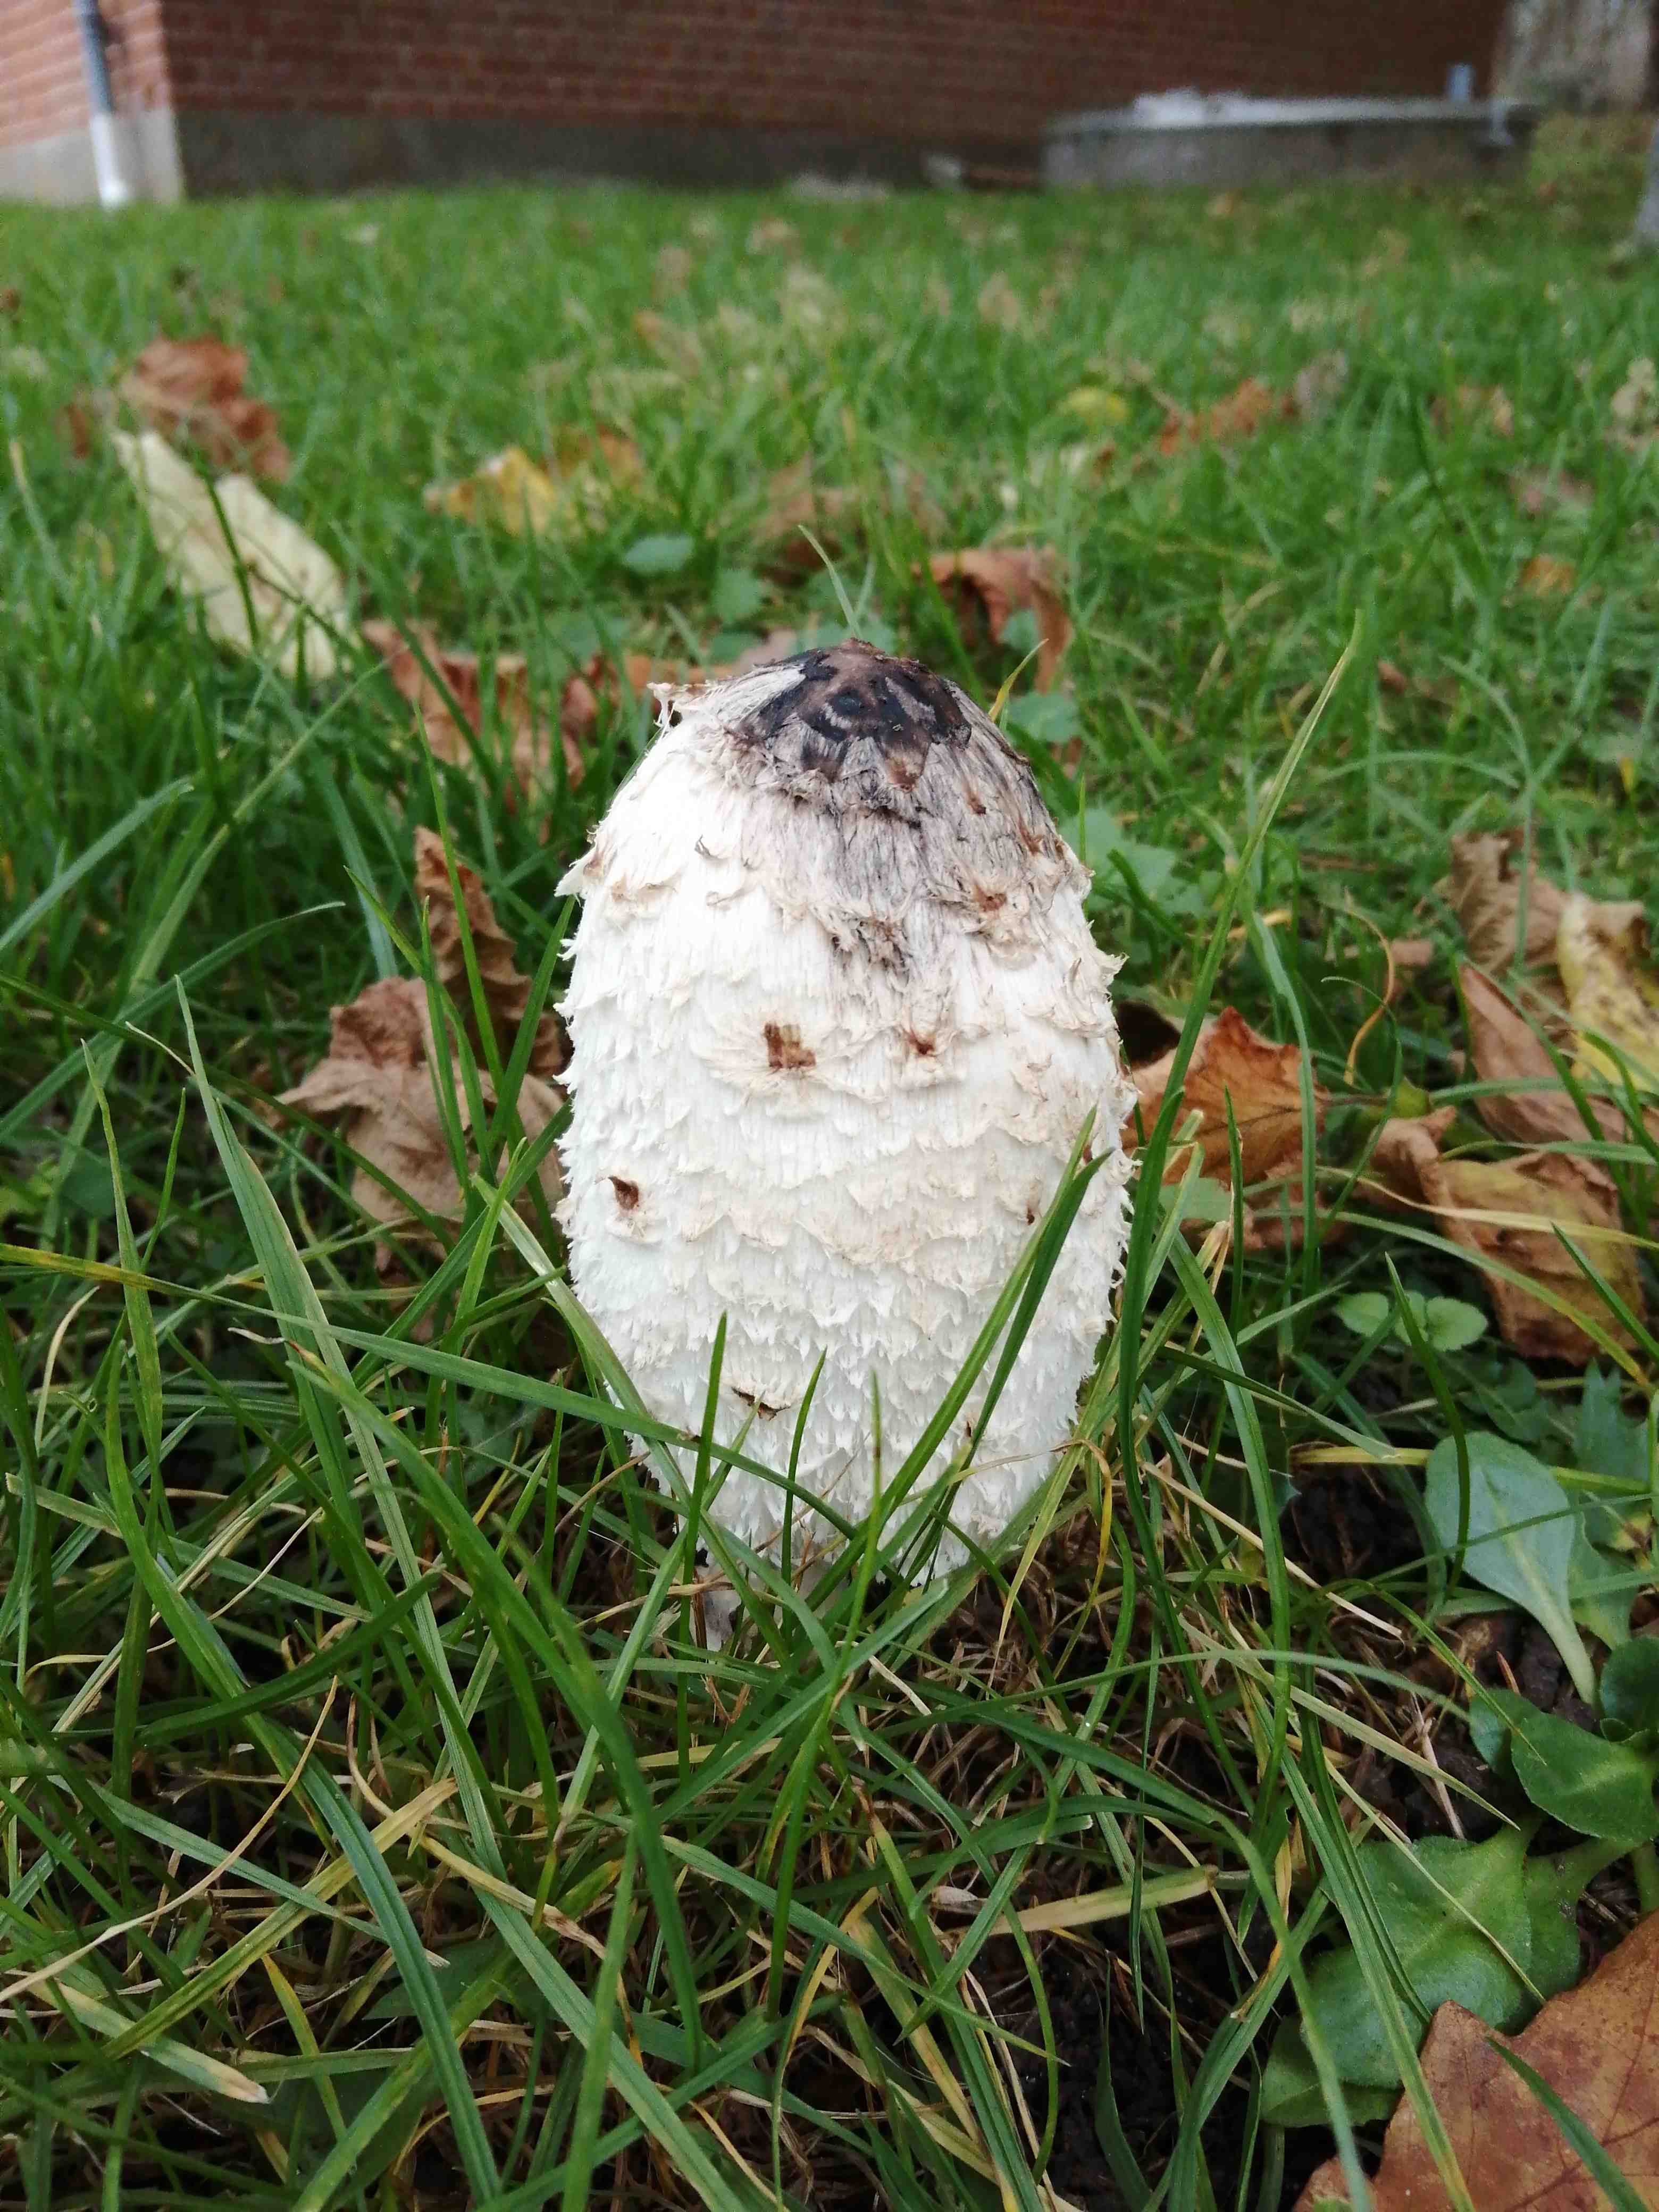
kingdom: Fungi
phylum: Basidiomycota
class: Agaricomycetes
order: Agaricales
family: Agaricaceae
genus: Coprinus
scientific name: Coprinus comatus
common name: stor parykhat
